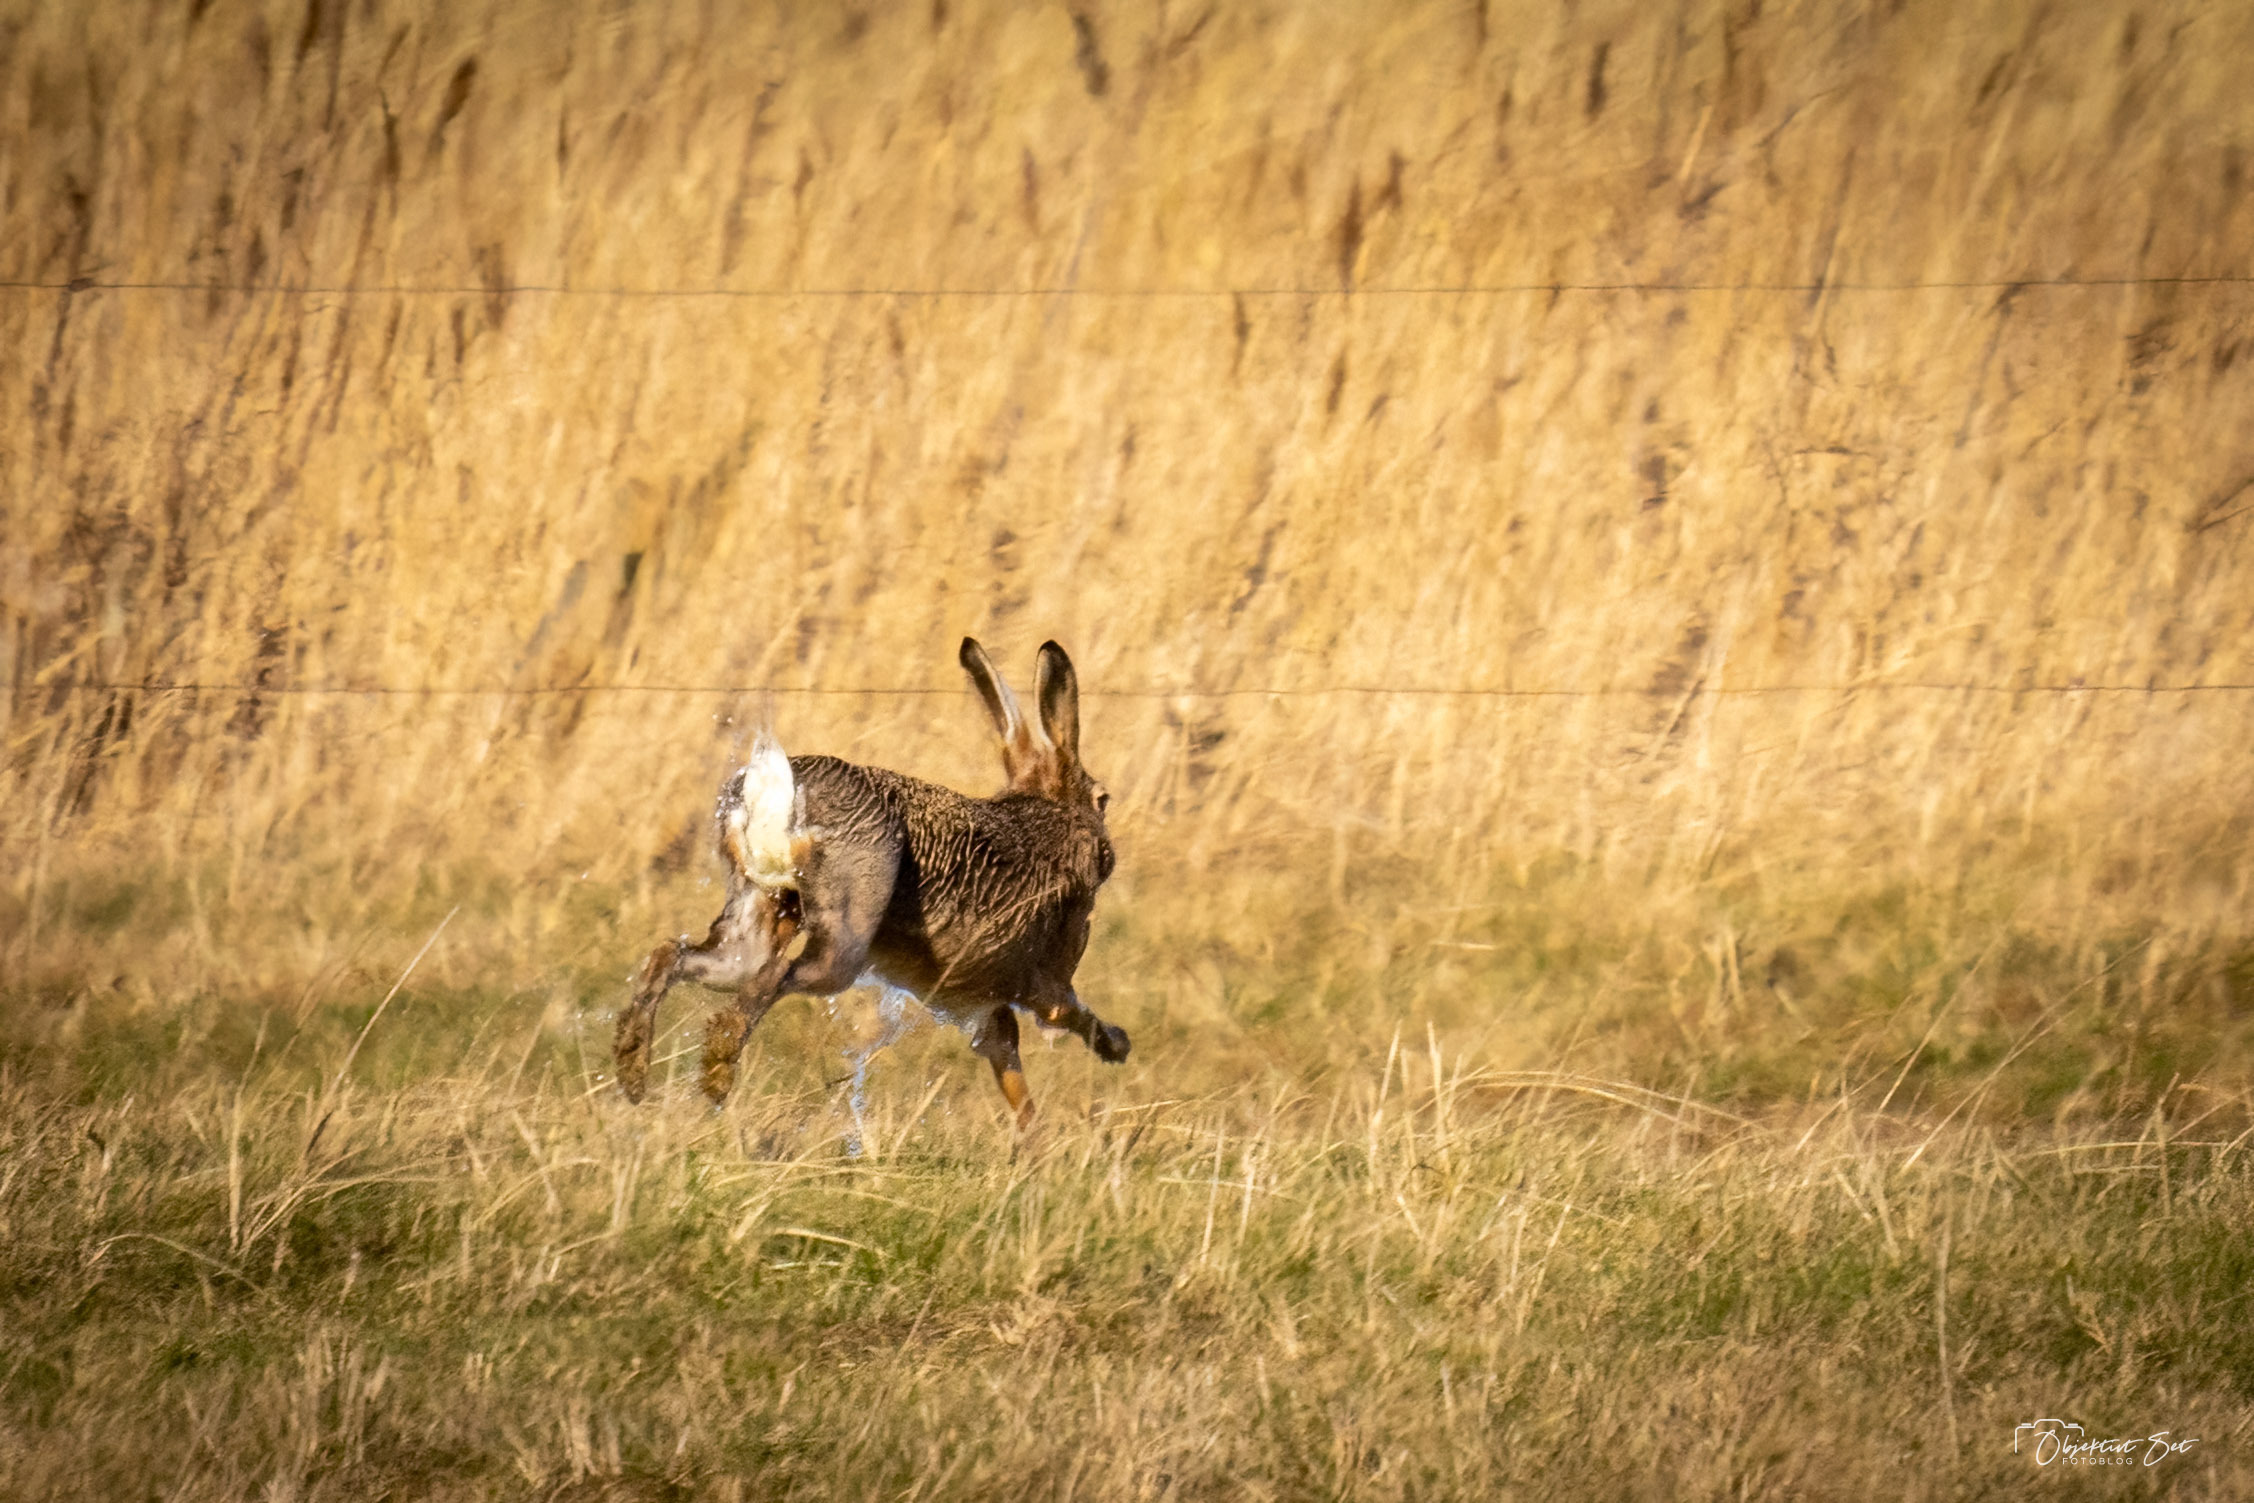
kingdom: Animalia
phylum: Chordata
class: Mammalia
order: Lagomorpha
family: Leporidae
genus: Lepus
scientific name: Lepus europaeus
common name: Hare
